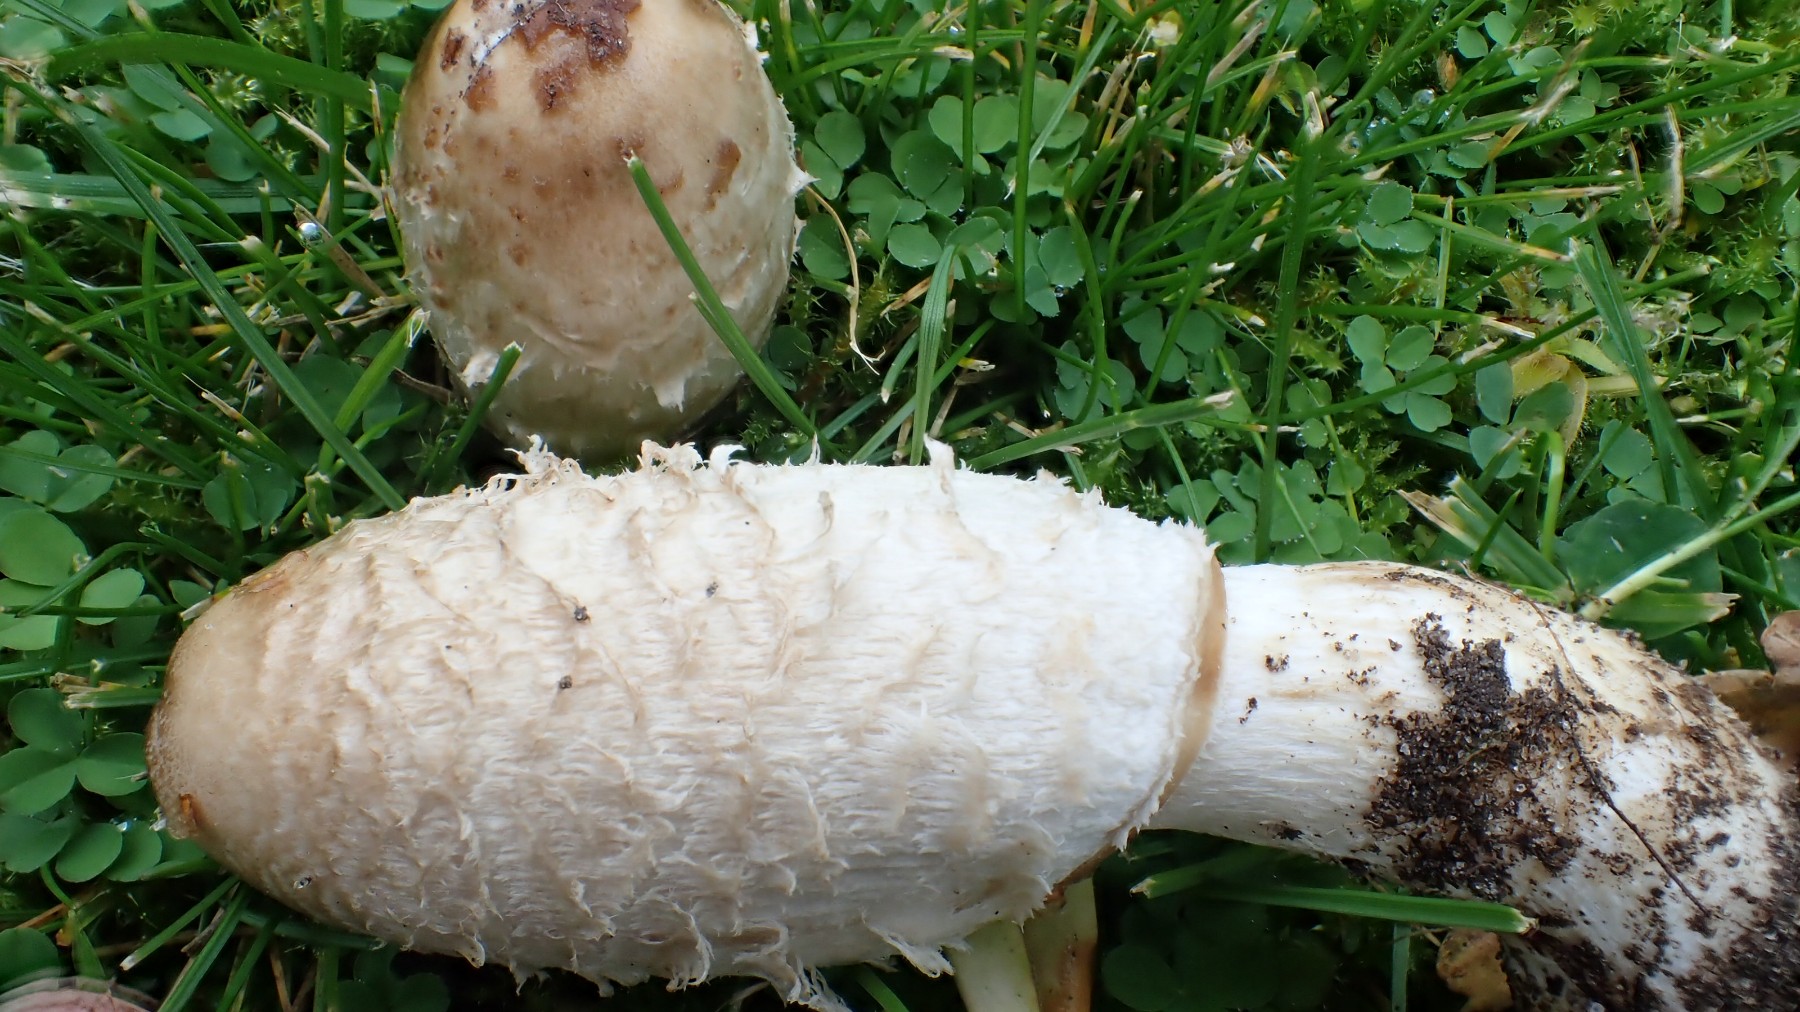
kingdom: Fungi
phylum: Basidiomycota
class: Agaricomycetes
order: Agaricales
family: Agaricaceae
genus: Coprinus
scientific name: Coprinus comatus
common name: stor parykhat
